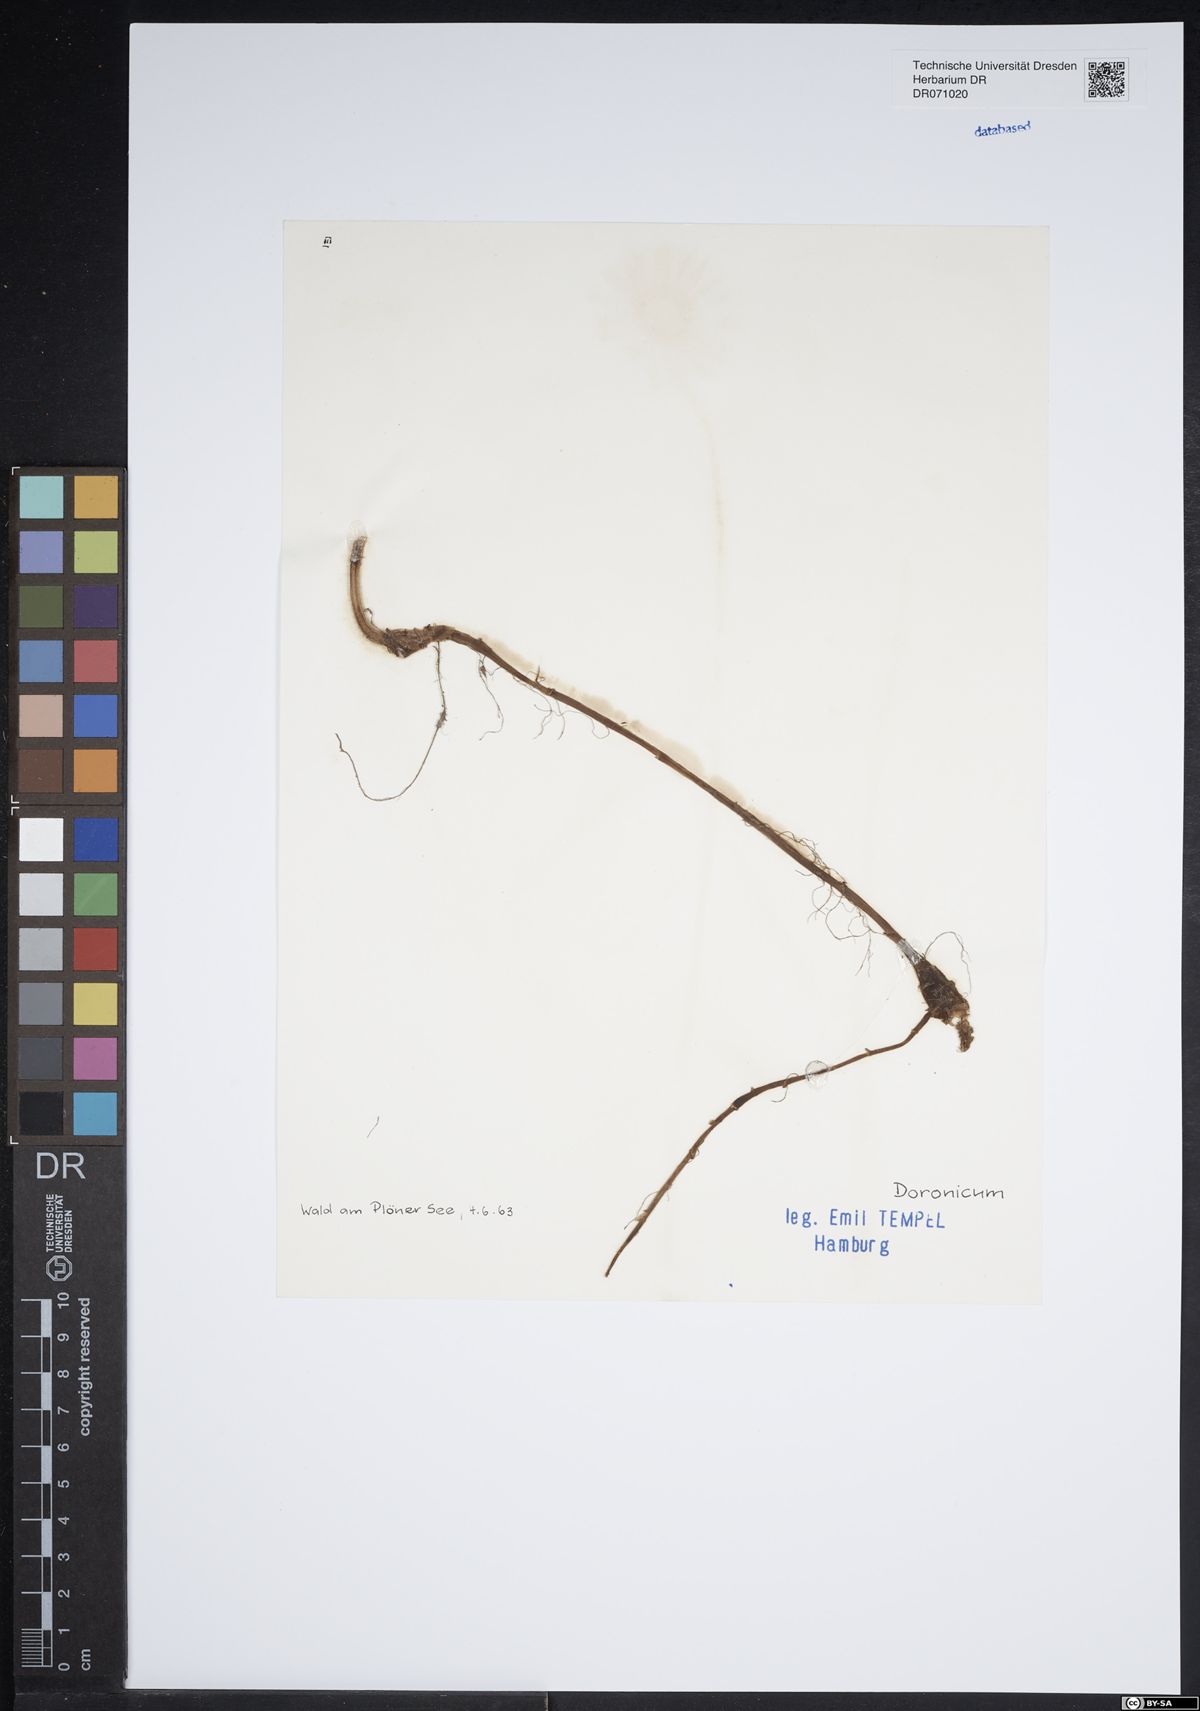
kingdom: Plantae
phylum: Tracheophyta
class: Magnoliopsida
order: Asterales
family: Asteraceae
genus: Doronicum
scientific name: Doronicum
